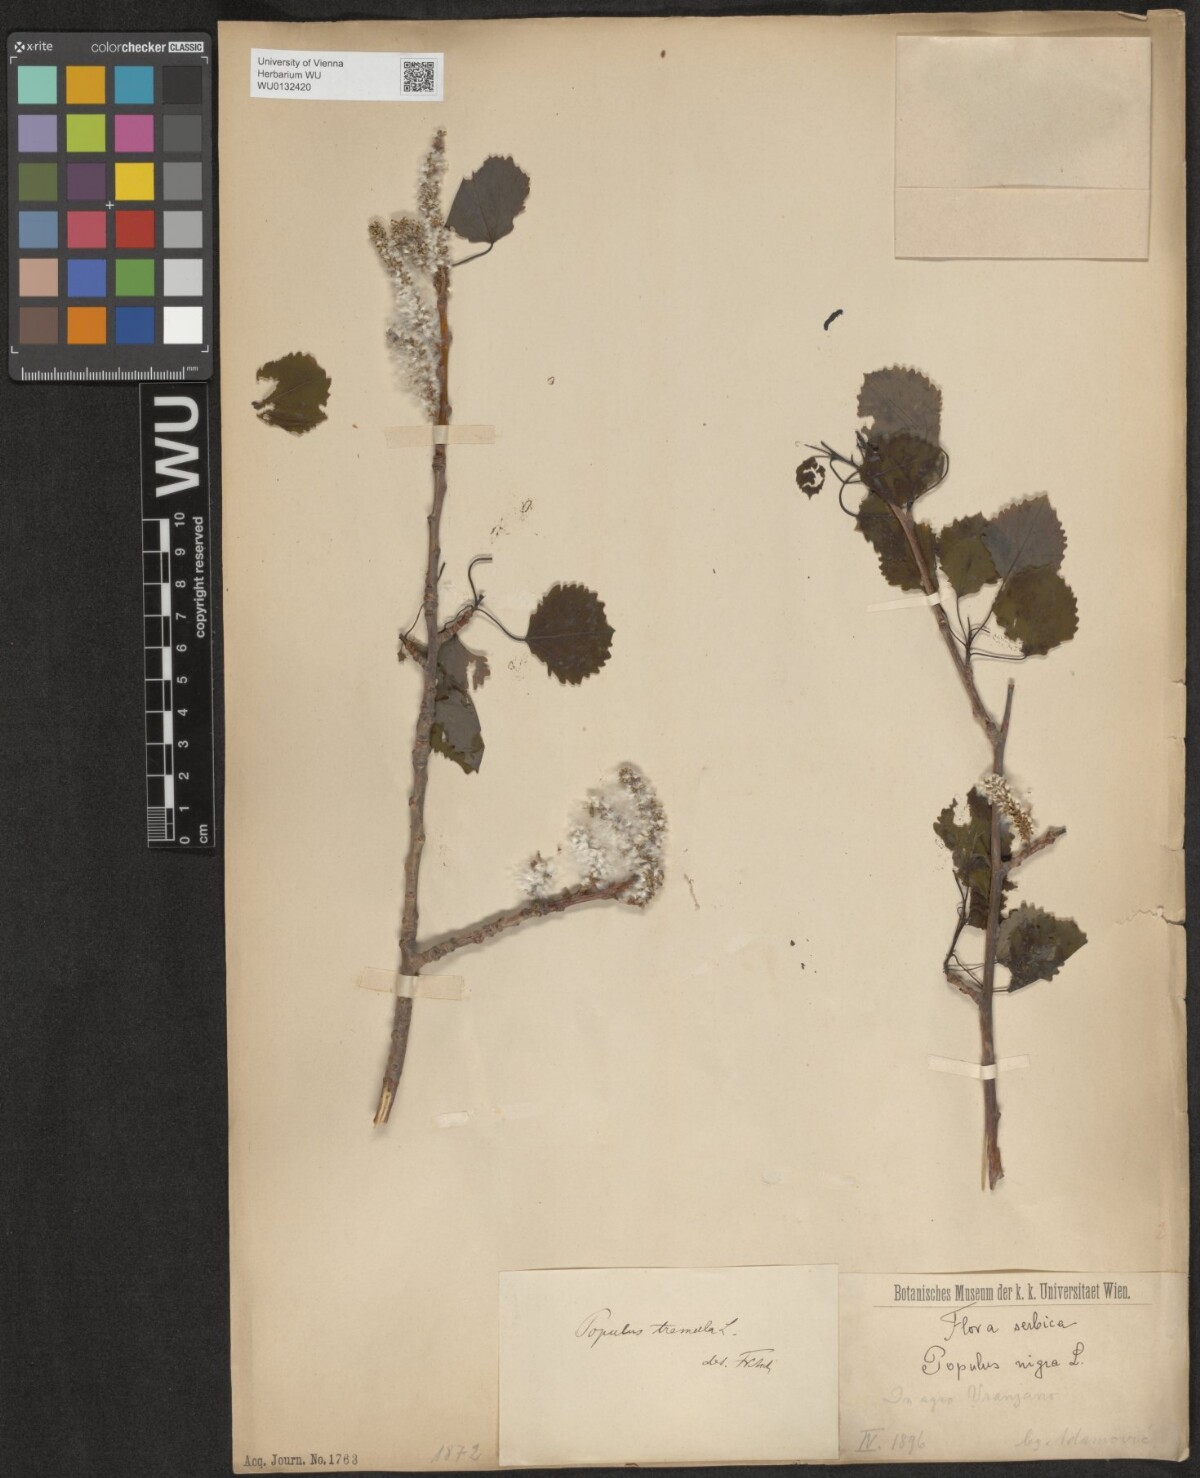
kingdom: Plantae
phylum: Tracheophyta
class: Magnoliopsida
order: Malpighiales
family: Salicaceae
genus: Populus
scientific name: Populus tremula
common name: European aspen
